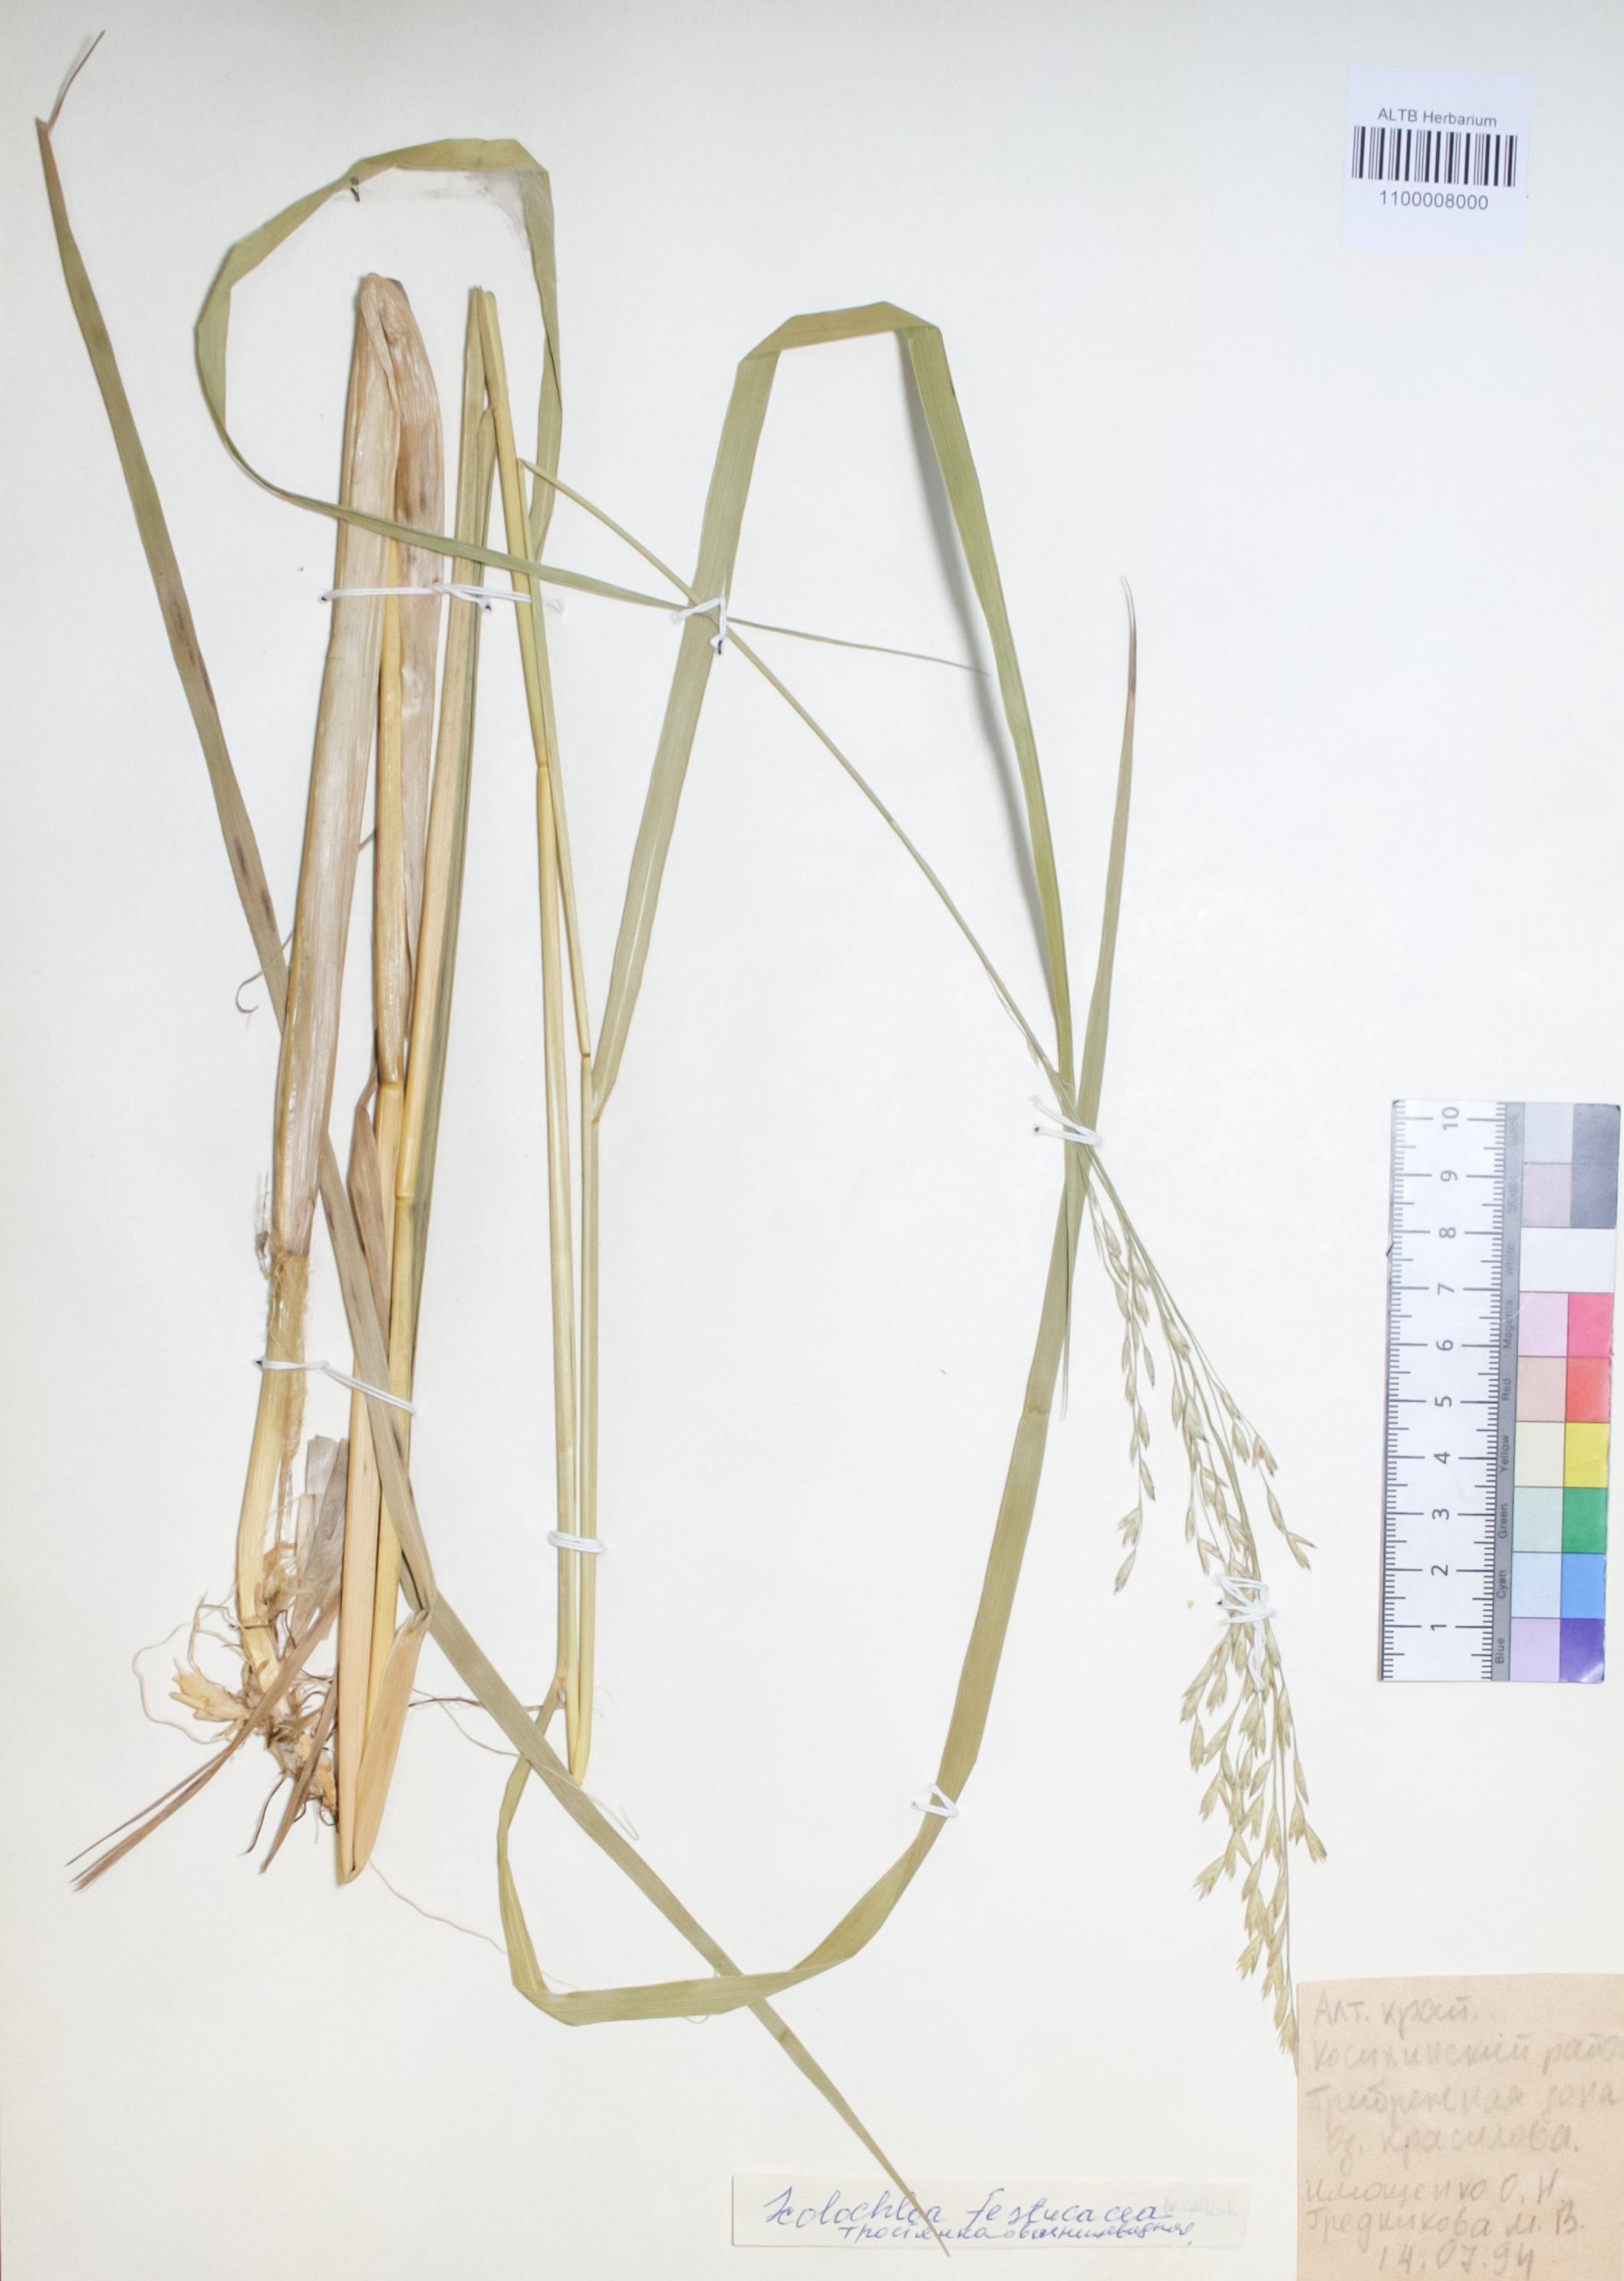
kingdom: Plantae
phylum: Tracheophyta
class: Liliopsida
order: Poales
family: Poaceae
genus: Scolochloa
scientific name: Scolochloa festucacea
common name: Common rivergrass
